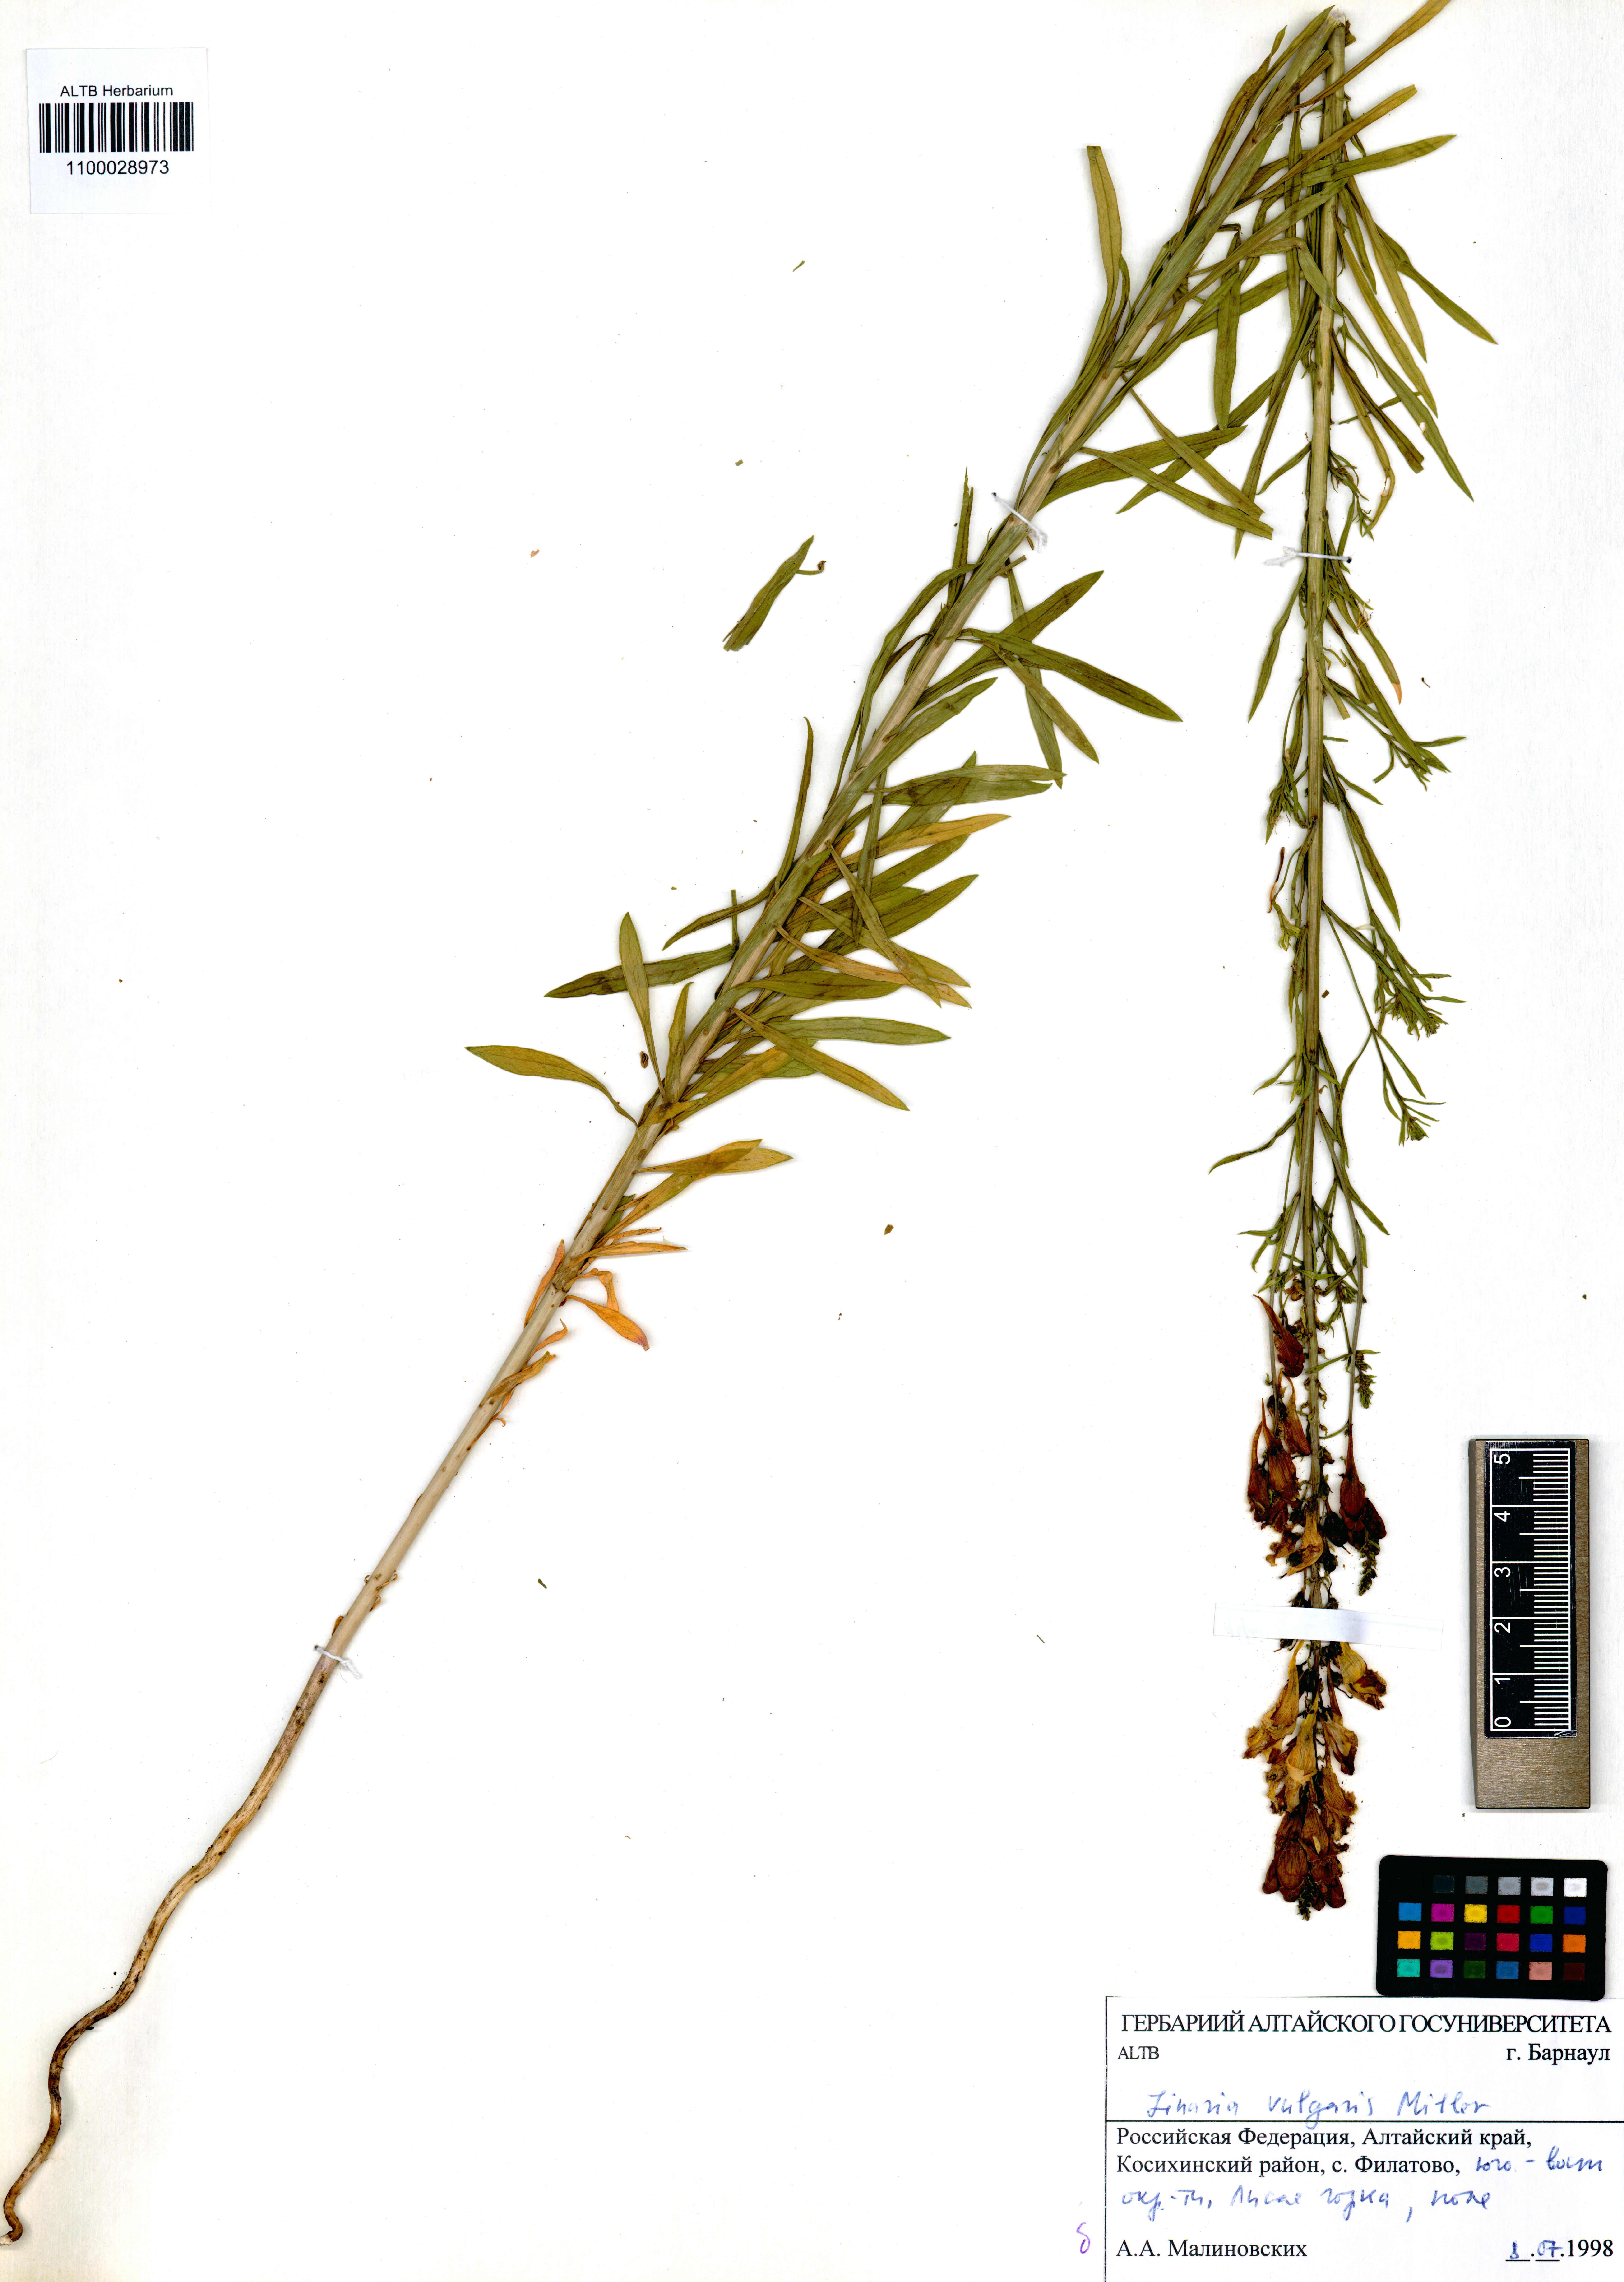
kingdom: Plantae
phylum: Tracheophyta
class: Magnoliopsida
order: Lamiales
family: Plantaginaceae
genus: Linaria
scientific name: Linaria vulgaris
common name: Butter and eggs
